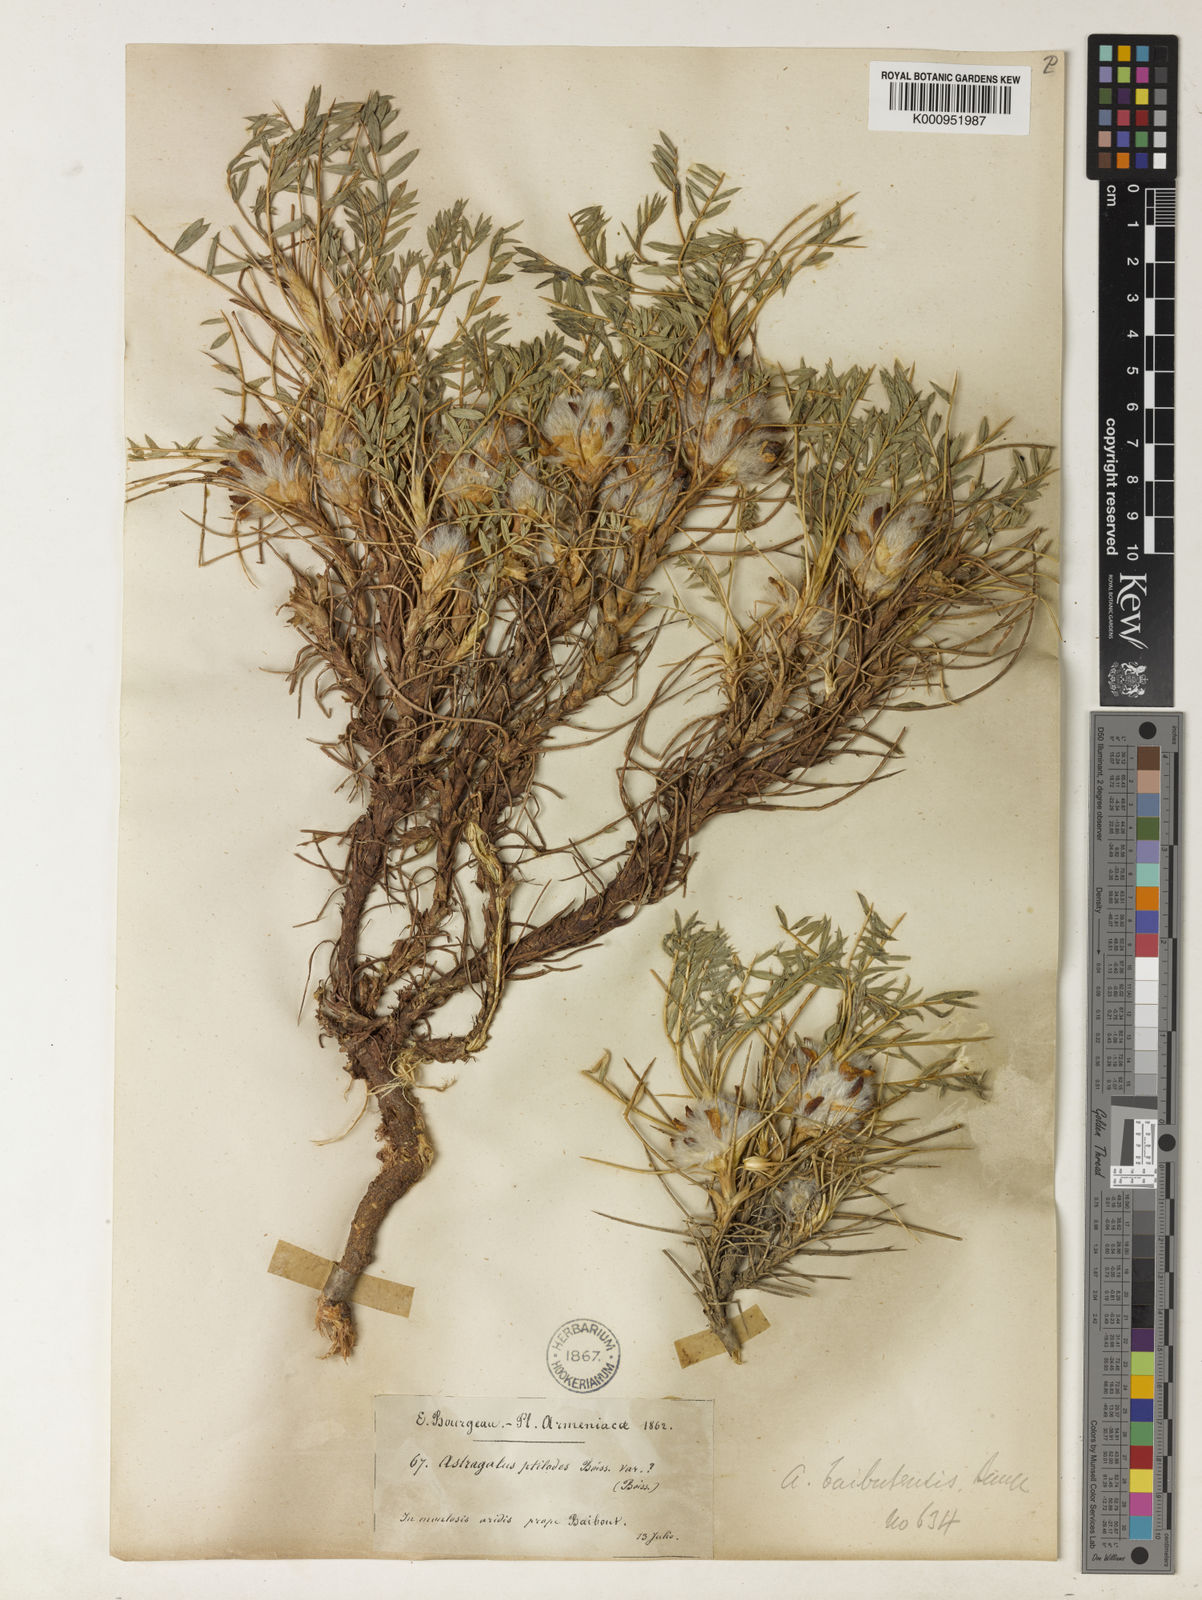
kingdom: Plantae
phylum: Tracheophyta
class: Magnoliopsida
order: Fabales
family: Fabaceae
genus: Astragalus
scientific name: Astragalus baibutensis
